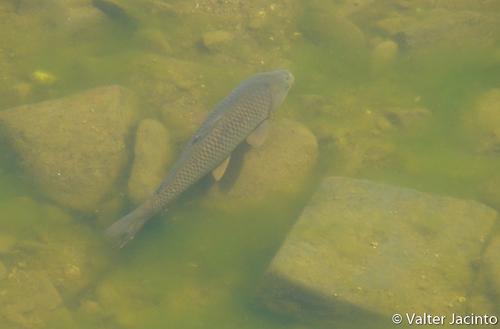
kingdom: Animalia
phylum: Chordata
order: Cypriniformes
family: Cyprinidae
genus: Cyprinus
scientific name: Cyprinus carpio
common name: Common carp
